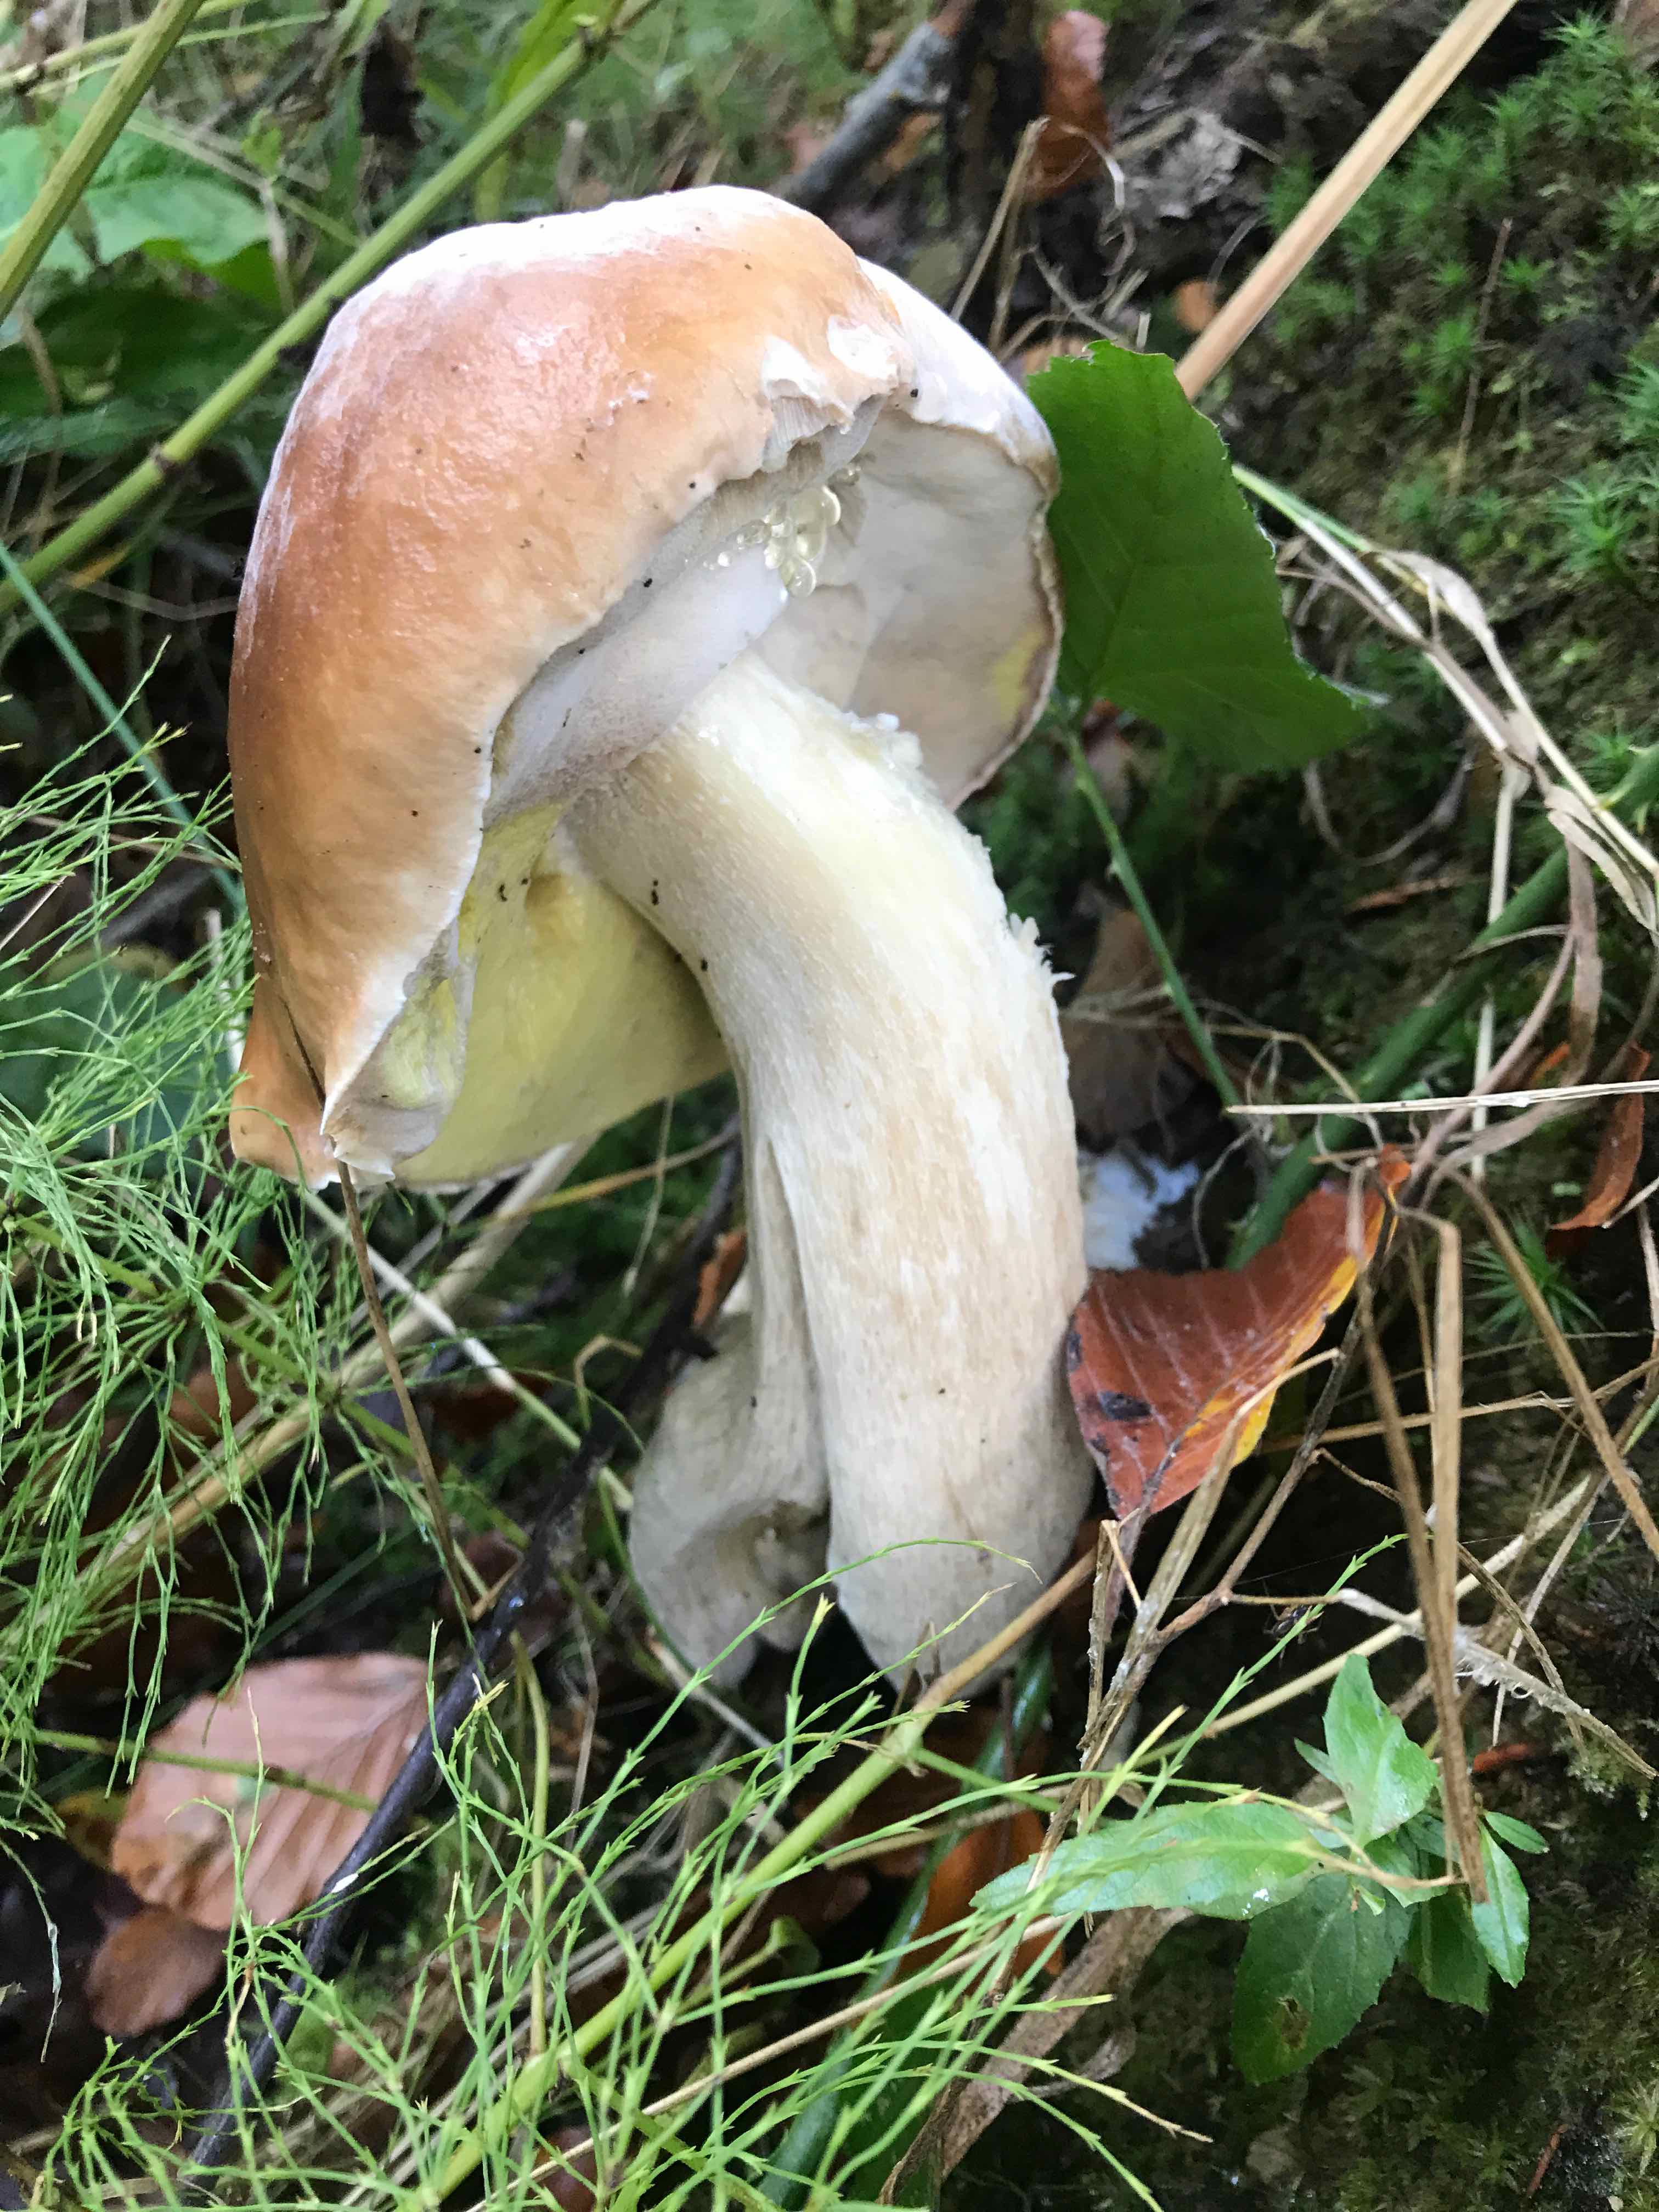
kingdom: Fungi
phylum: Basidiomycota
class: Agaricomycetes
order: Boletales
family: Boletaceae
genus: Boletus
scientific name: Boletus edulis
